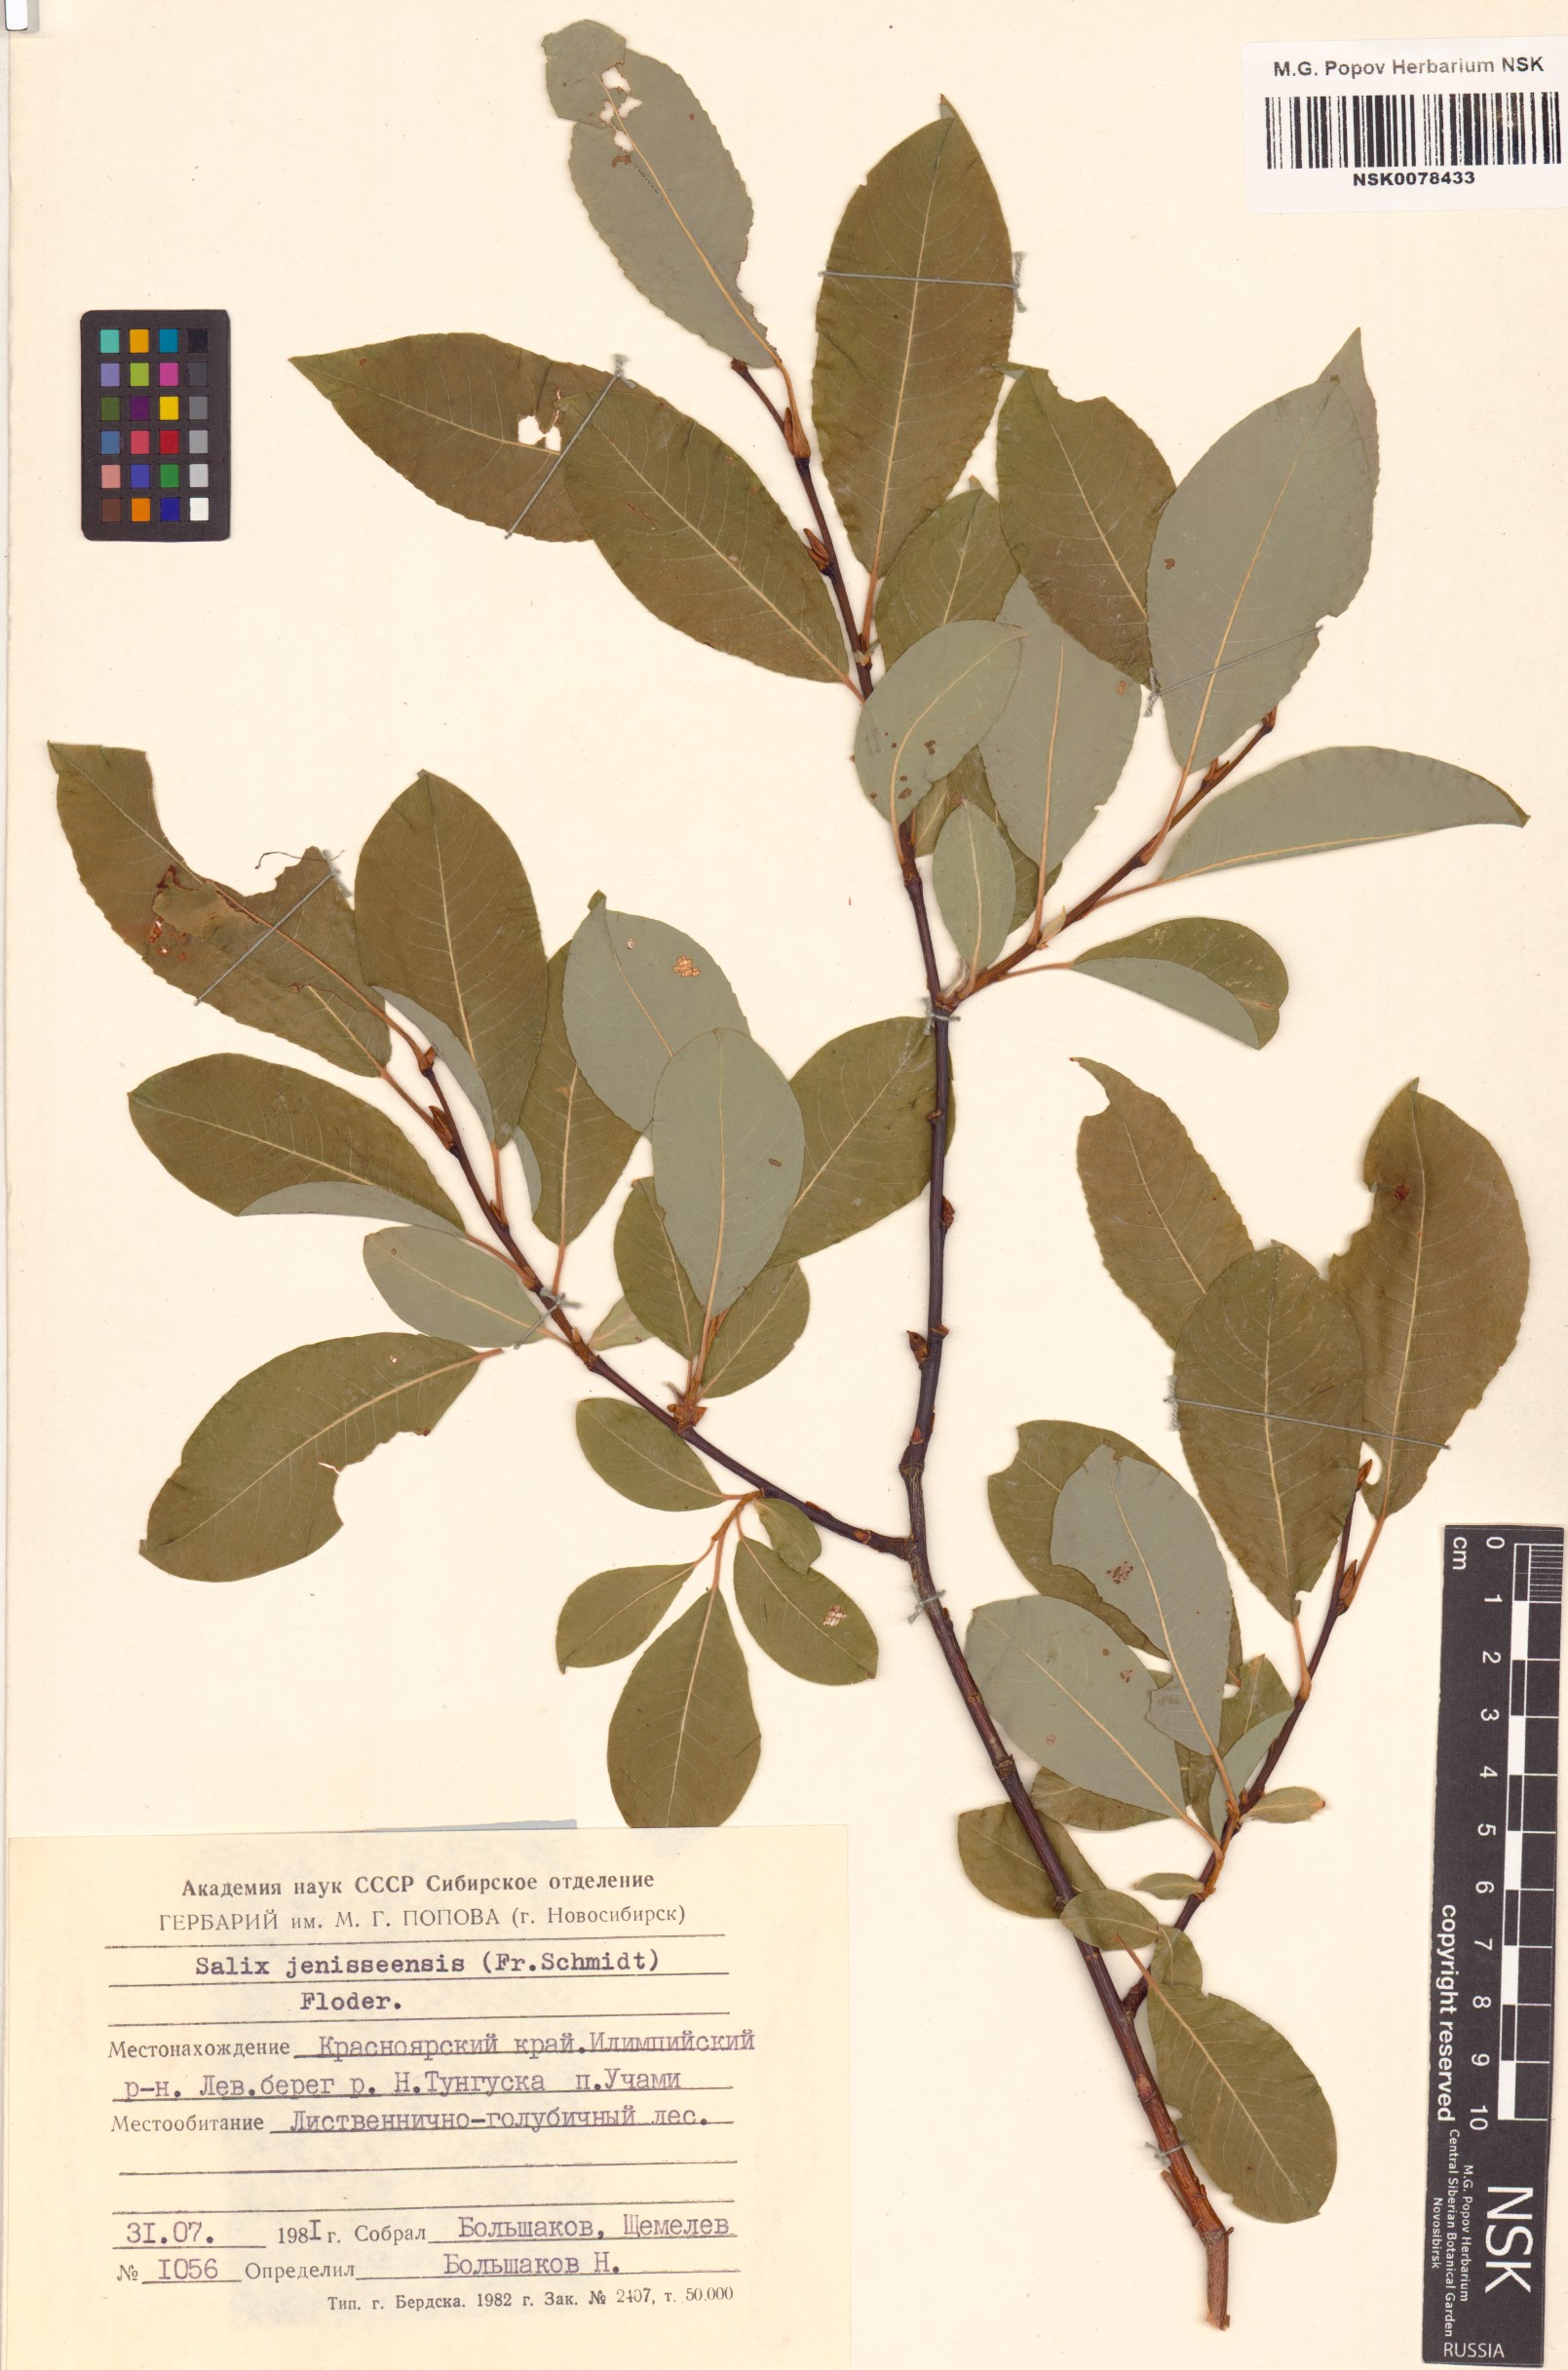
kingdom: Plantae
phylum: Tracheophyta
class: Magnoliopsida
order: Malpighiales
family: Salicaceae
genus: Salix
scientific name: Salix jenisseensis
